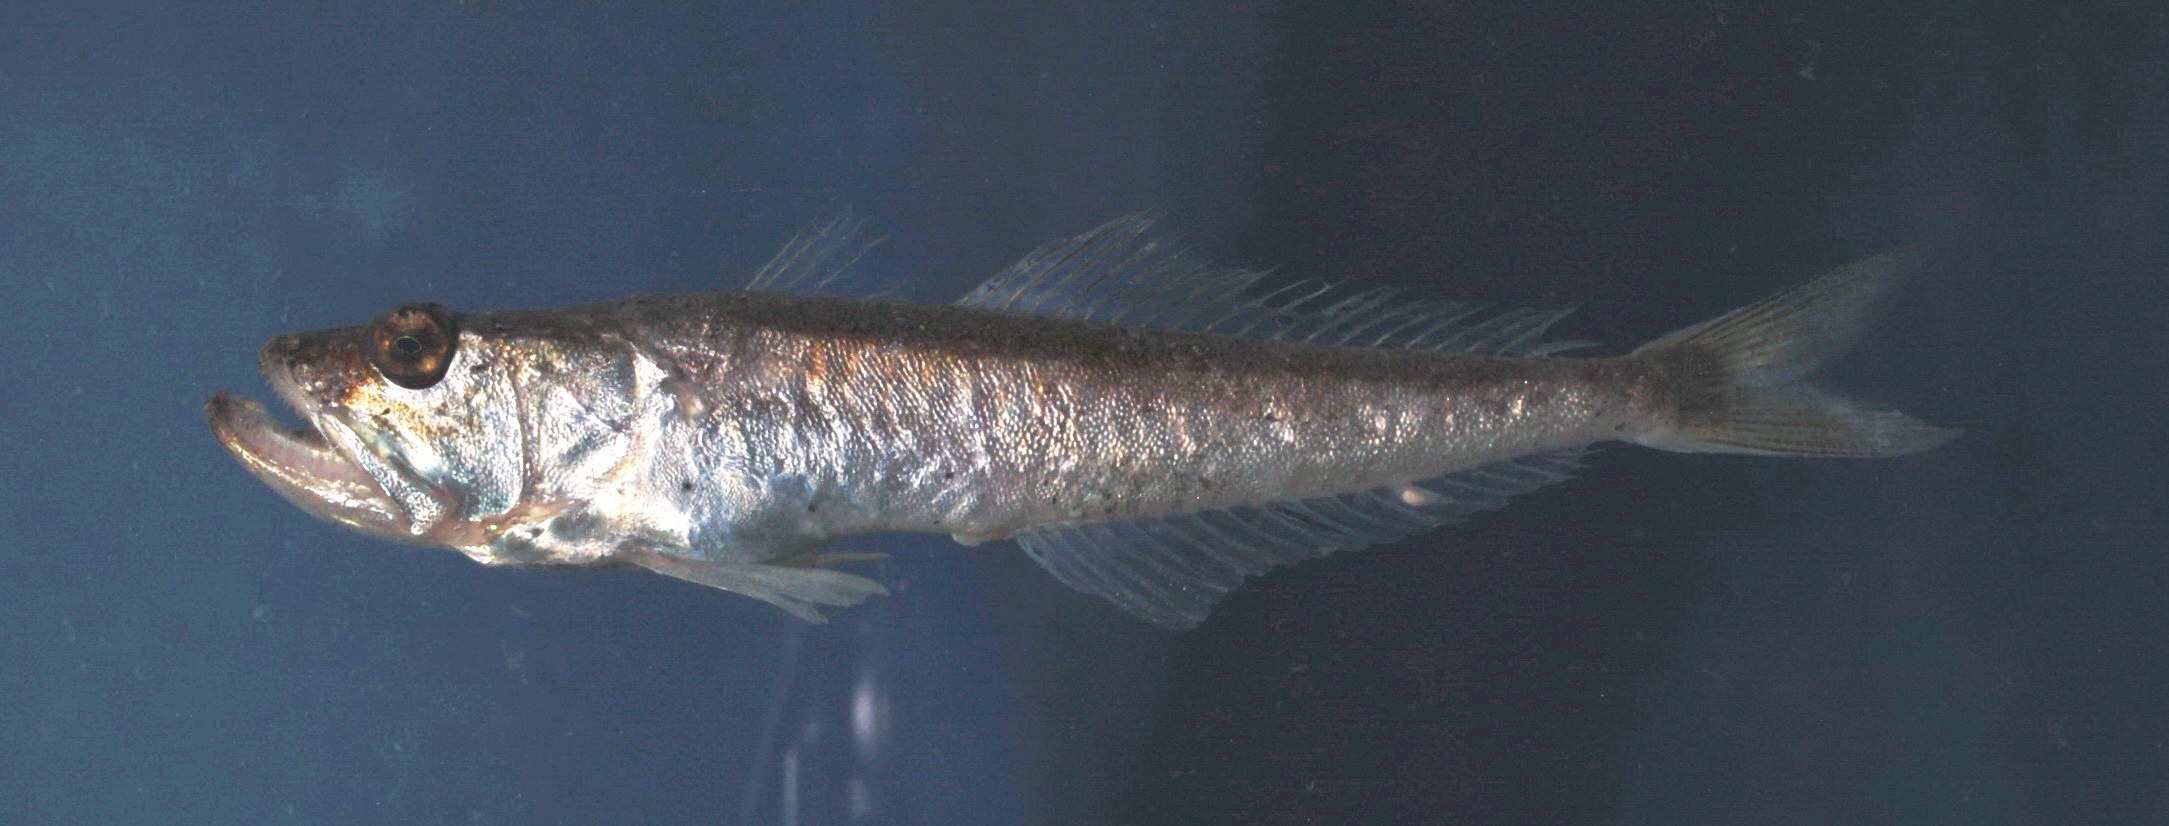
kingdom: Animalia
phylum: Chordata
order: Perciformes
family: Champsodontidae
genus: Champsodon
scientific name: Champsodon capensis
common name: Gaper
